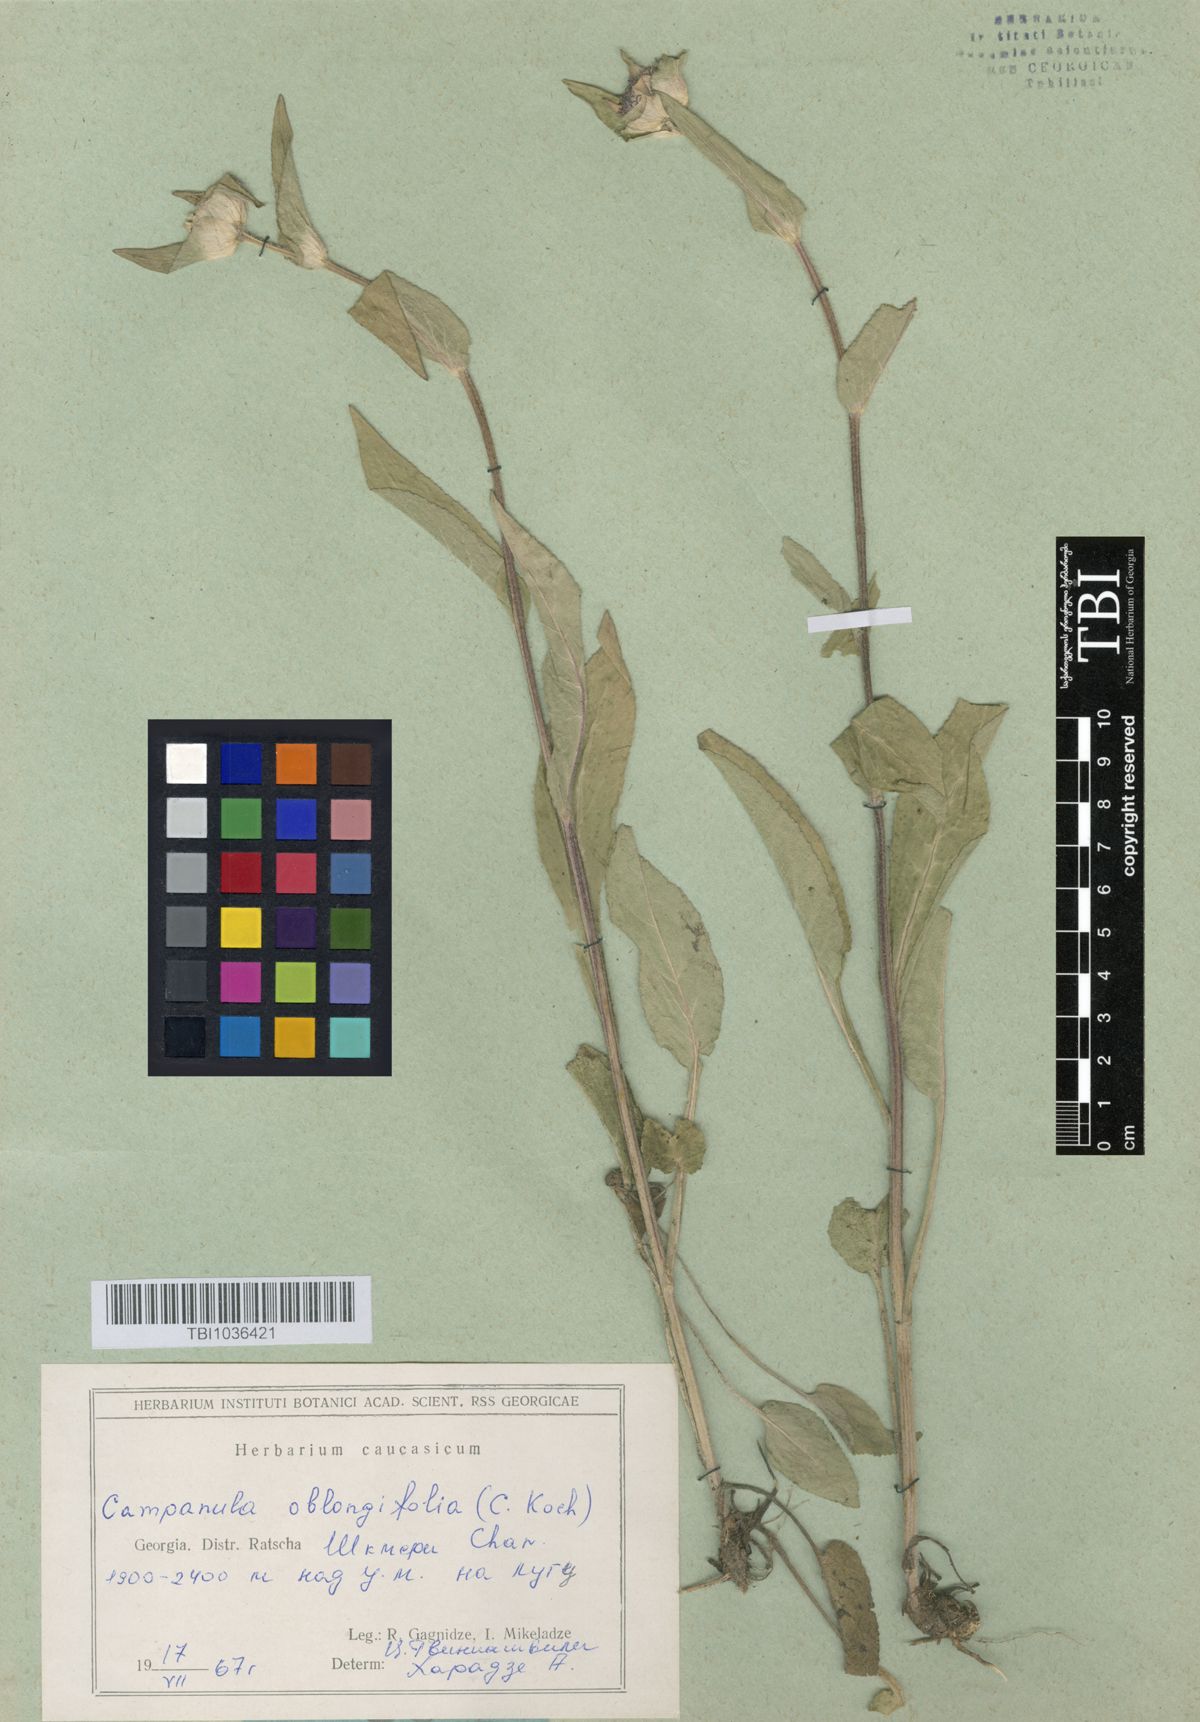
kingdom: Plantae
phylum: Tracheophyta
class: Magnoliopsida
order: Asterales
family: Campanulaceae
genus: Campanula
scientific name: Campanula glomerata
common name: Clustered bellflower
